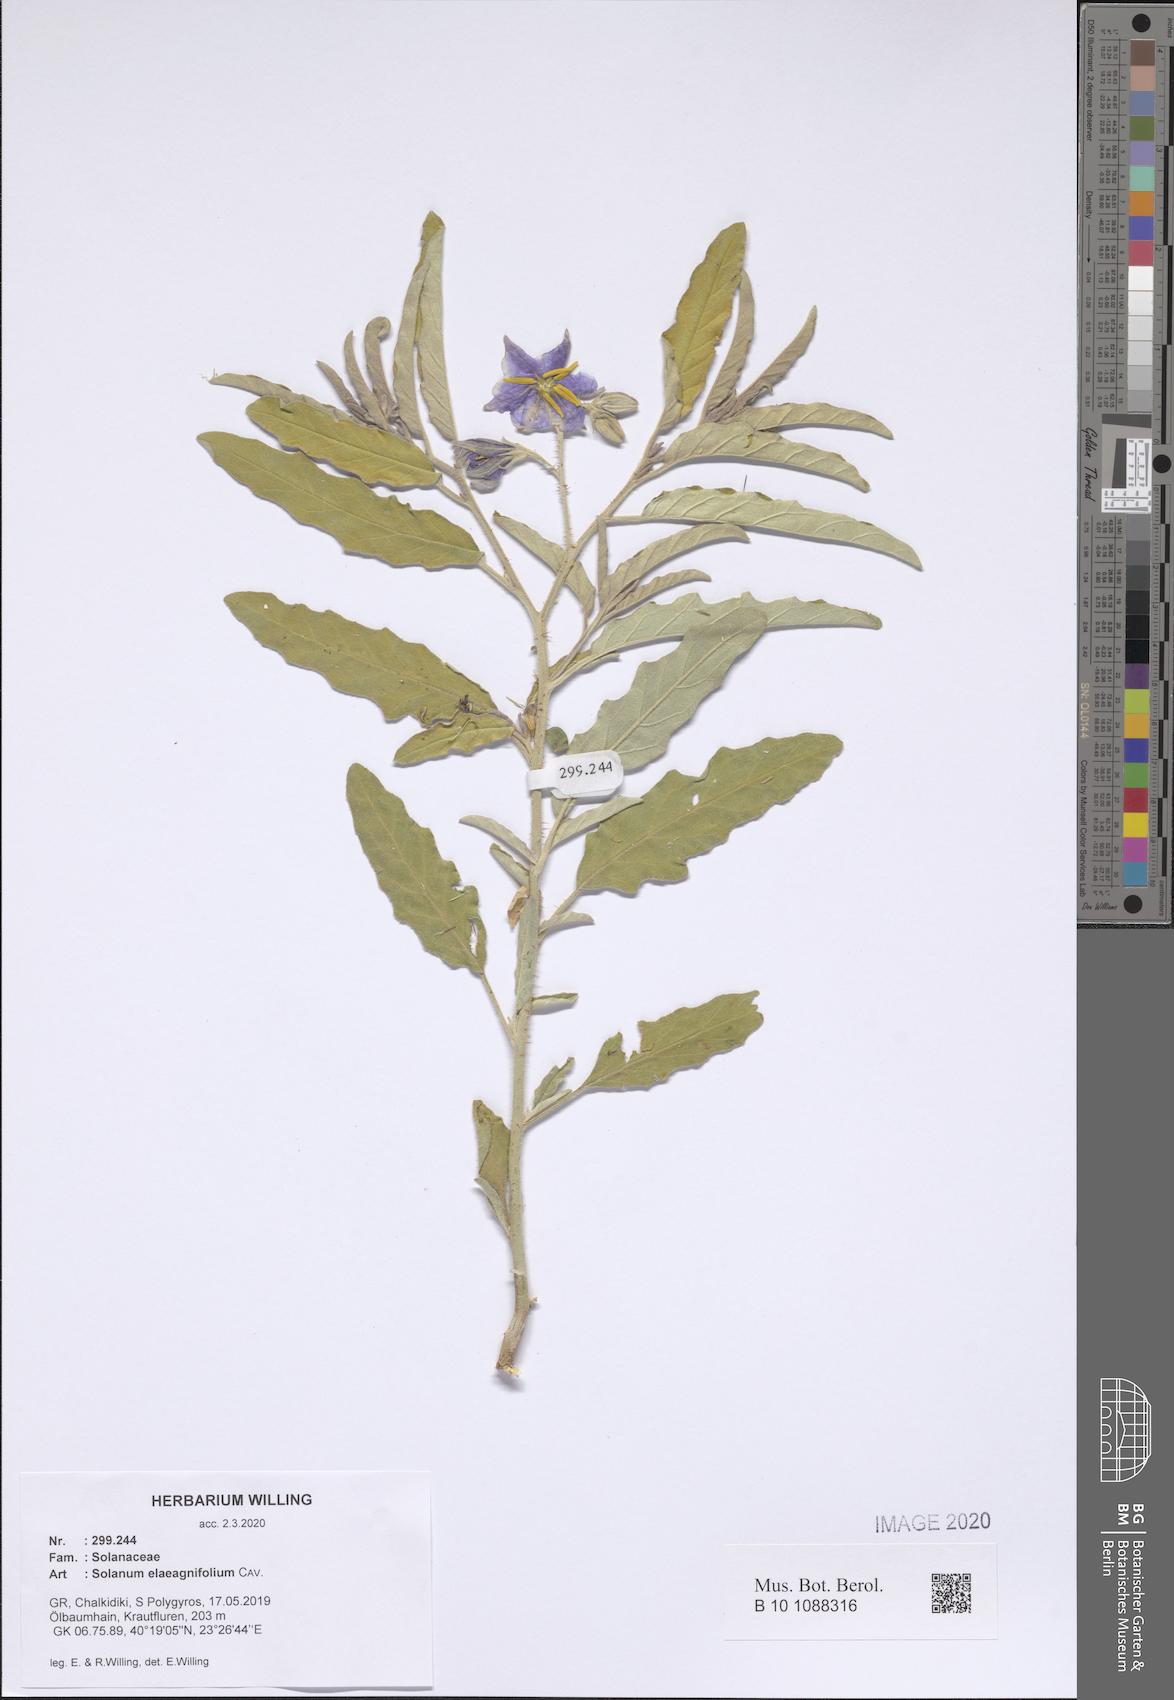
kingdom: Plantae
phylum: Tracheophyta
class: Magnoliopsida
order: Solanales
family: Solanaceae
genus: Solanum
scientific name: Solanum elaeagnifolium
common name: Silverleaf nightshade
